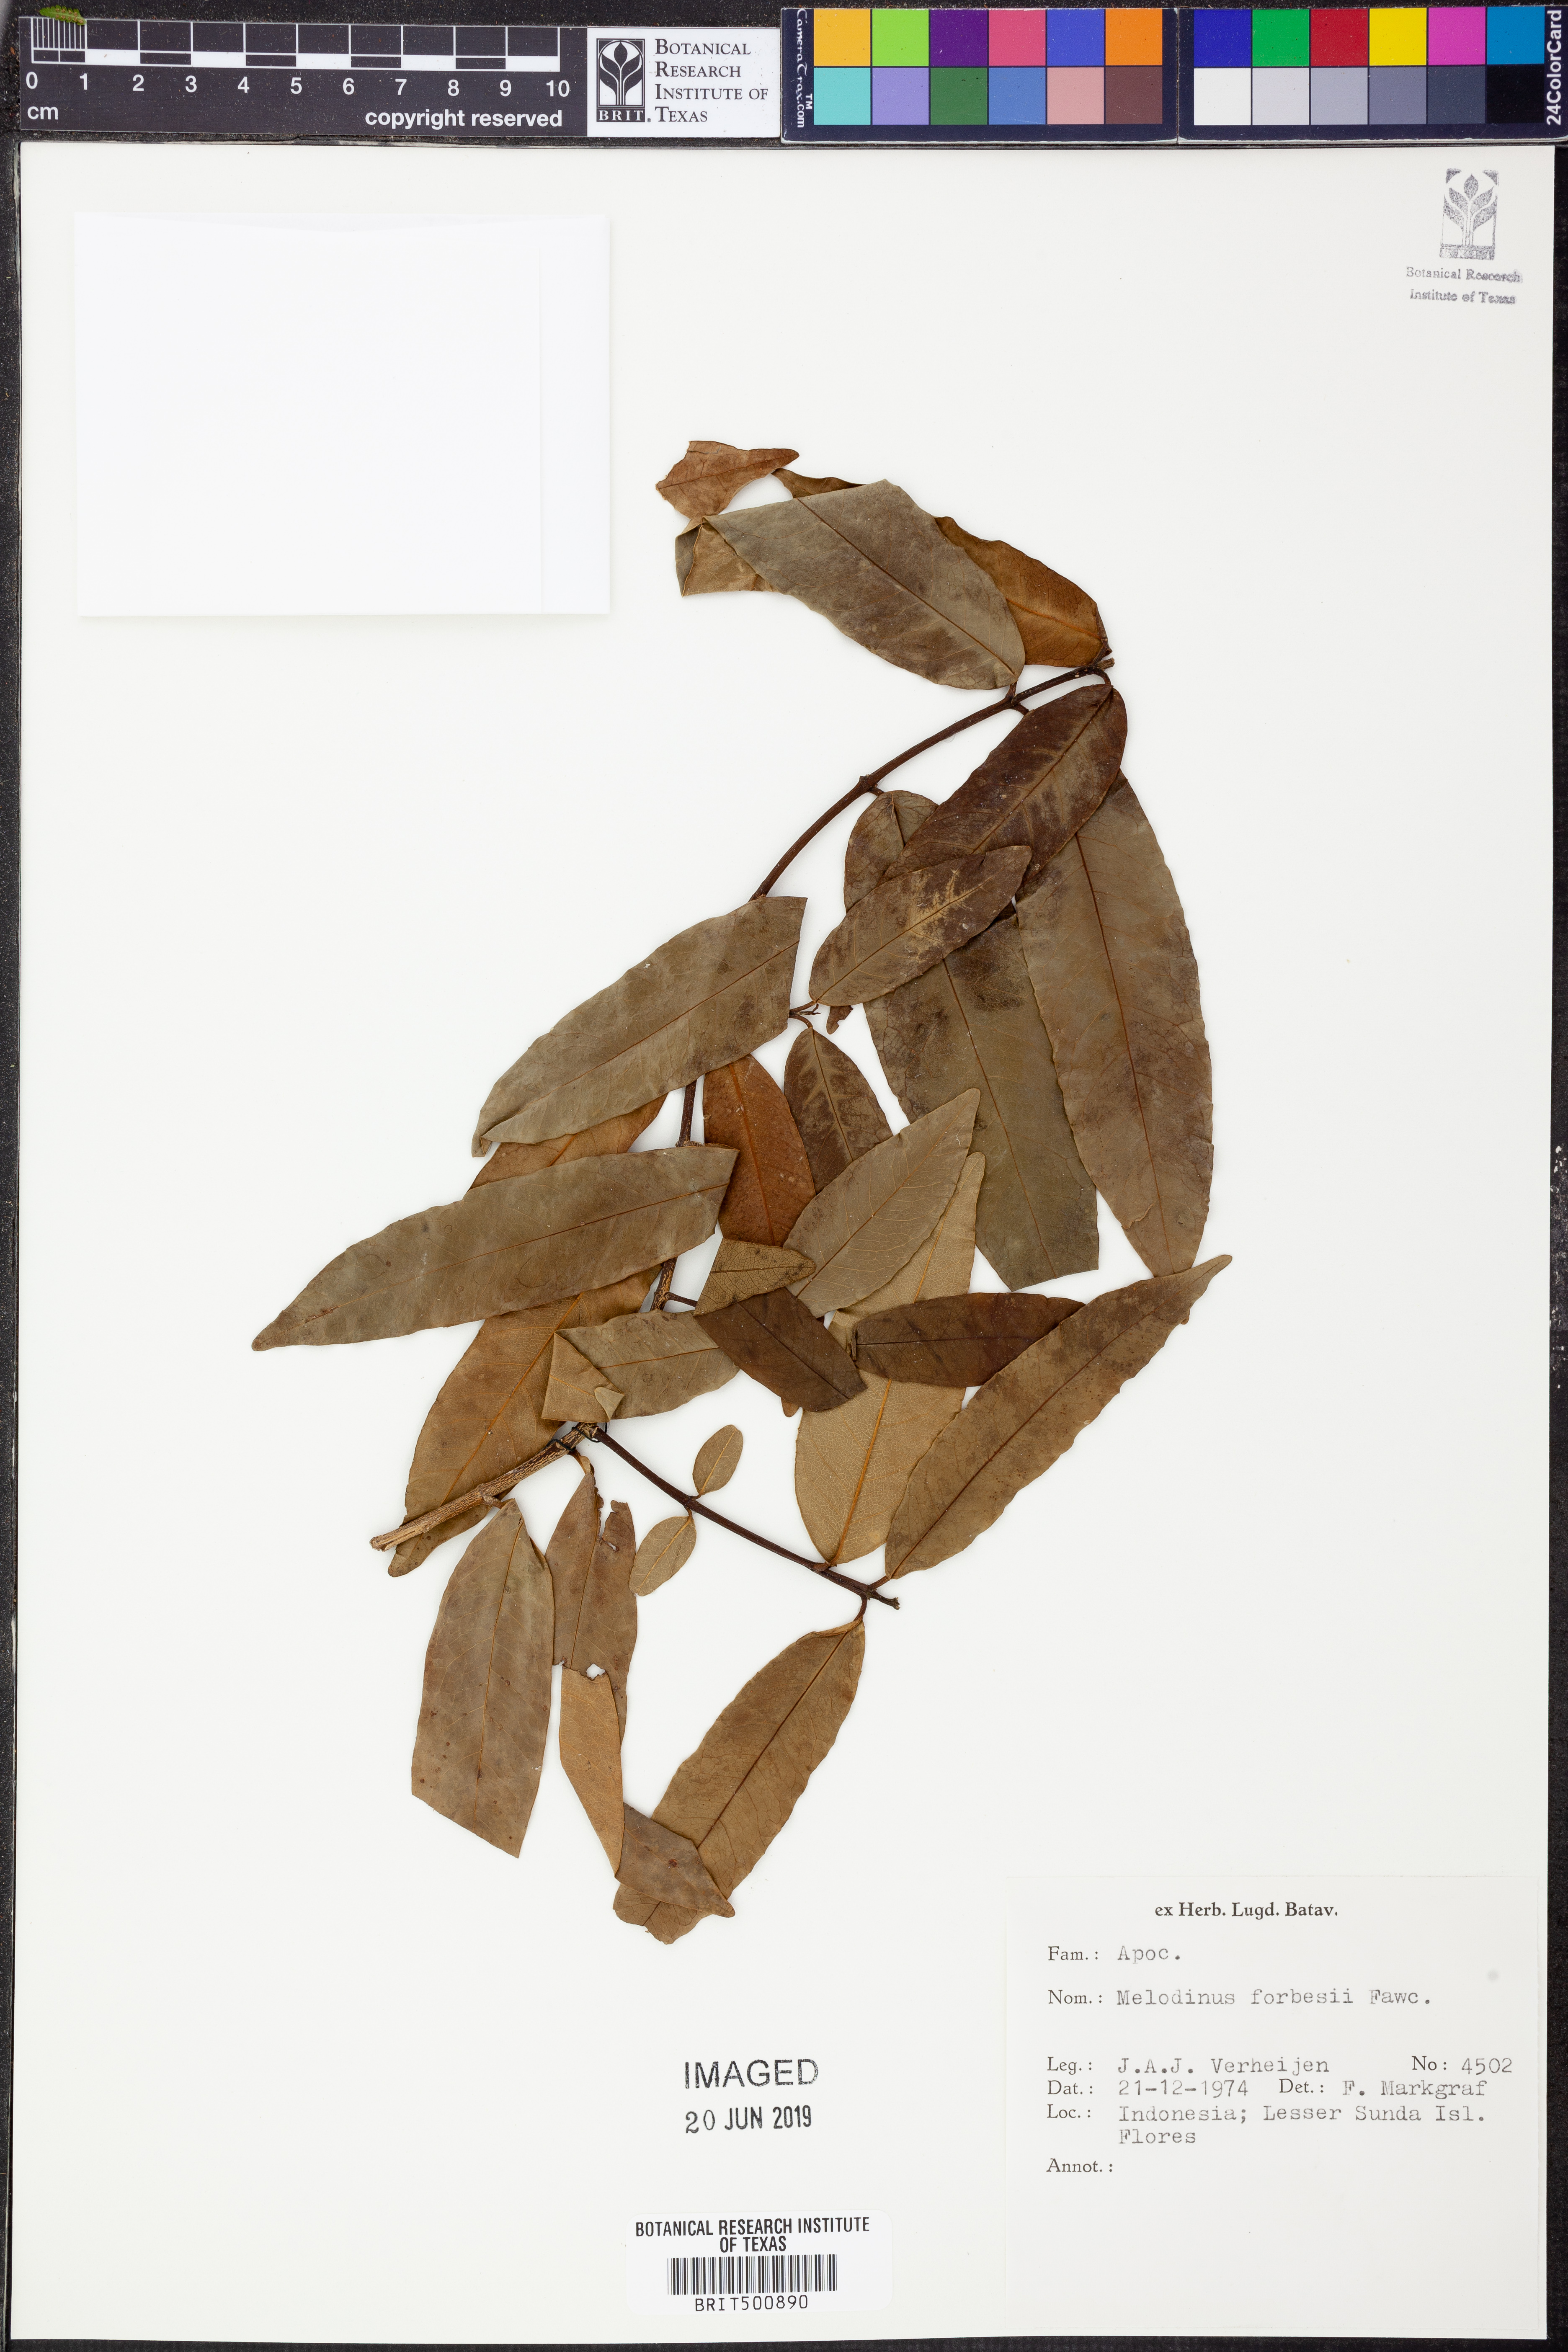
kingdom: Plantae
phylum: Tracheophyta
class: Magnoliopsida
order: Gentianales
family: Apocynaceae
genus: Melodinus
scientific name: Melodinus forbesii
